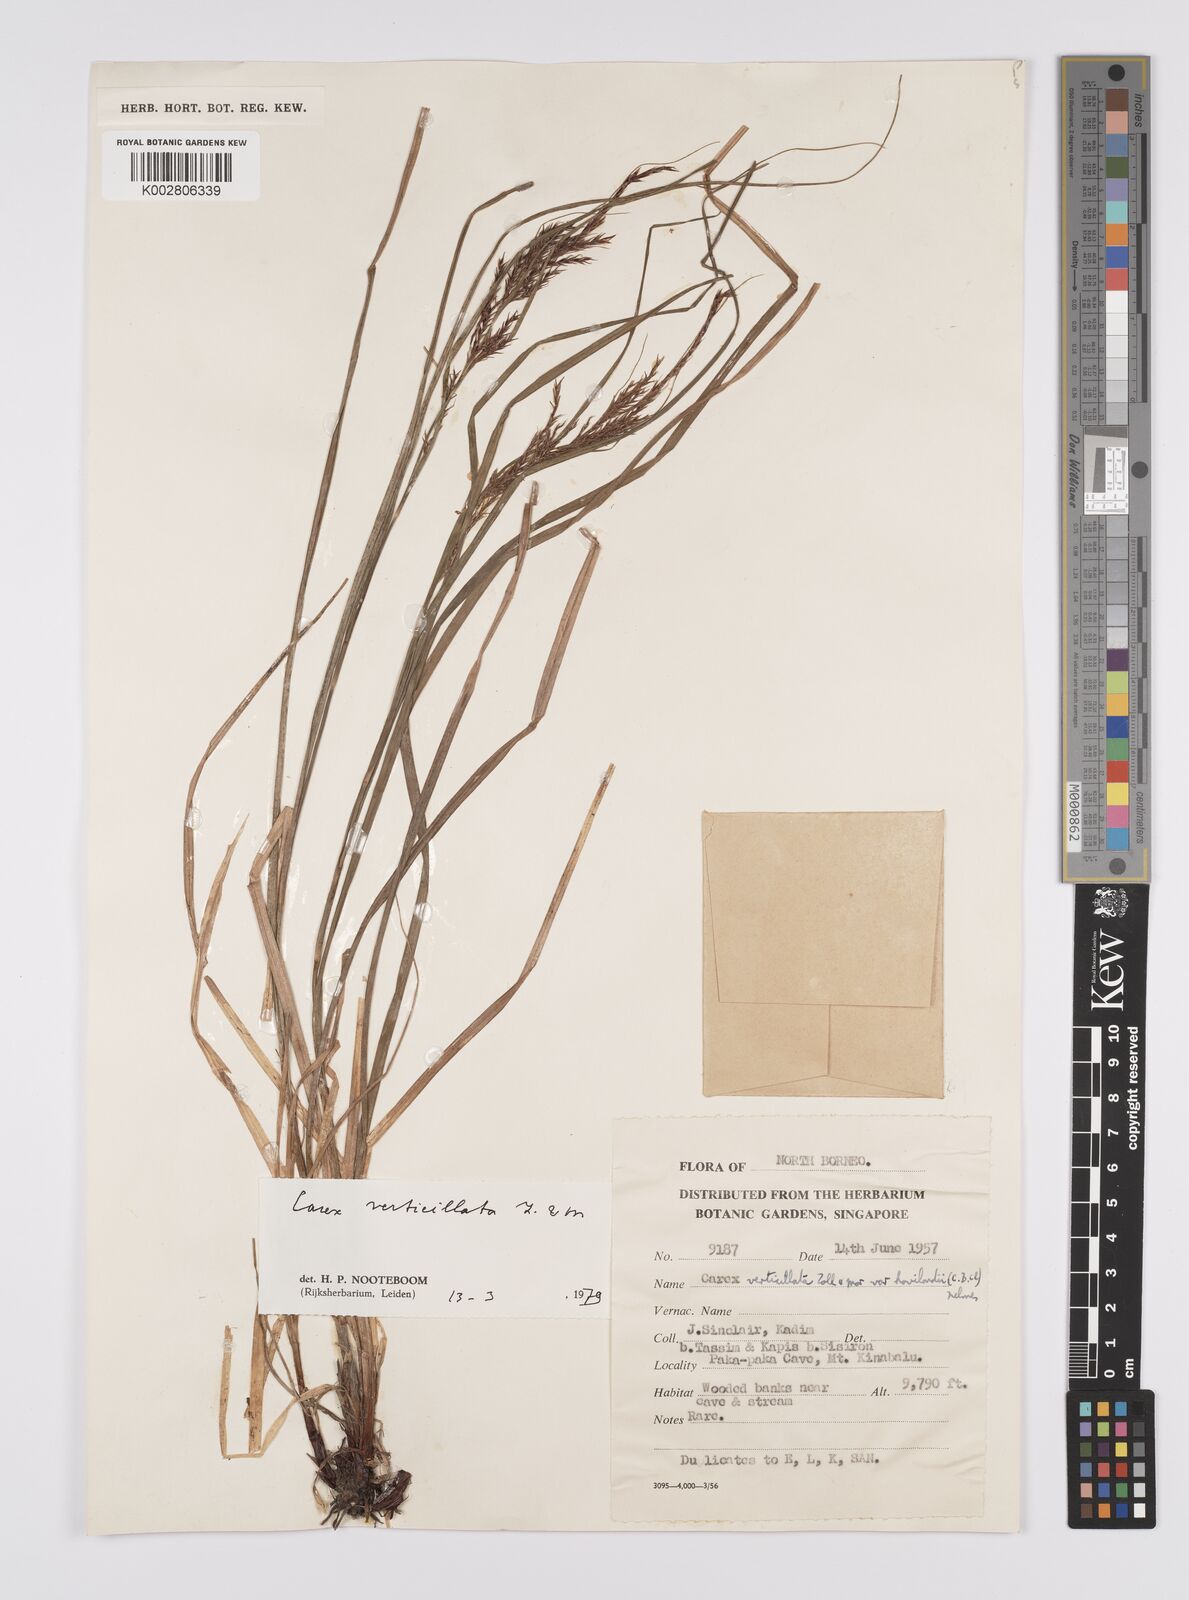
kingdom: Plantae
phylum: Tracheophyta
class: Liliopsida
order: Poales
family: Cyperaceae
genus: Carex
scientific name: Carex verticillata
